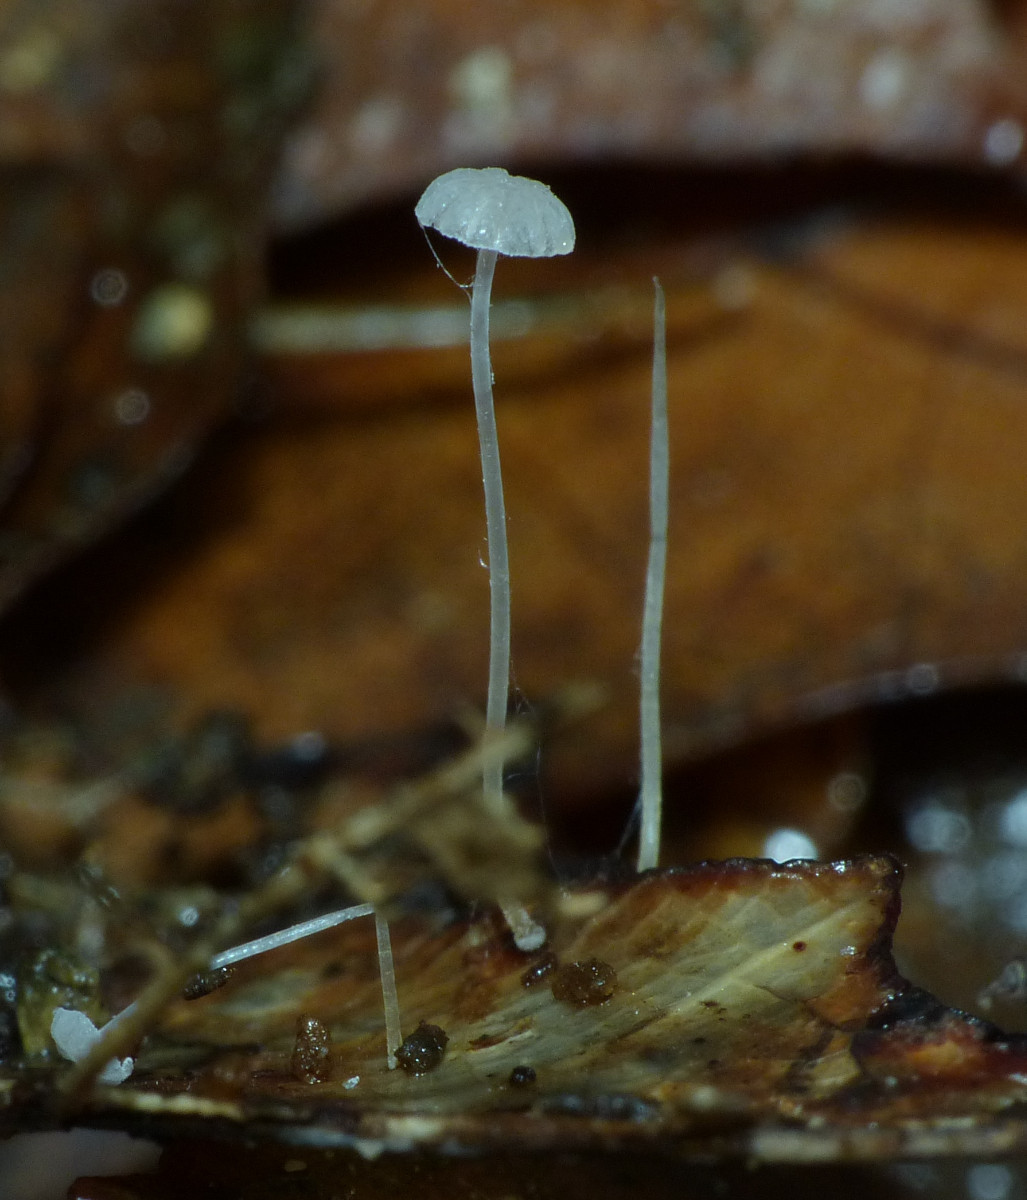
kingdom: Fungi
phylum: Basidiomycota
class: Agaricomycetes
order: Agaricales
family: Mycenaceae
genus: Mycena
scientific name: Mycena mucor
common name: frynseskivet huesvamp
